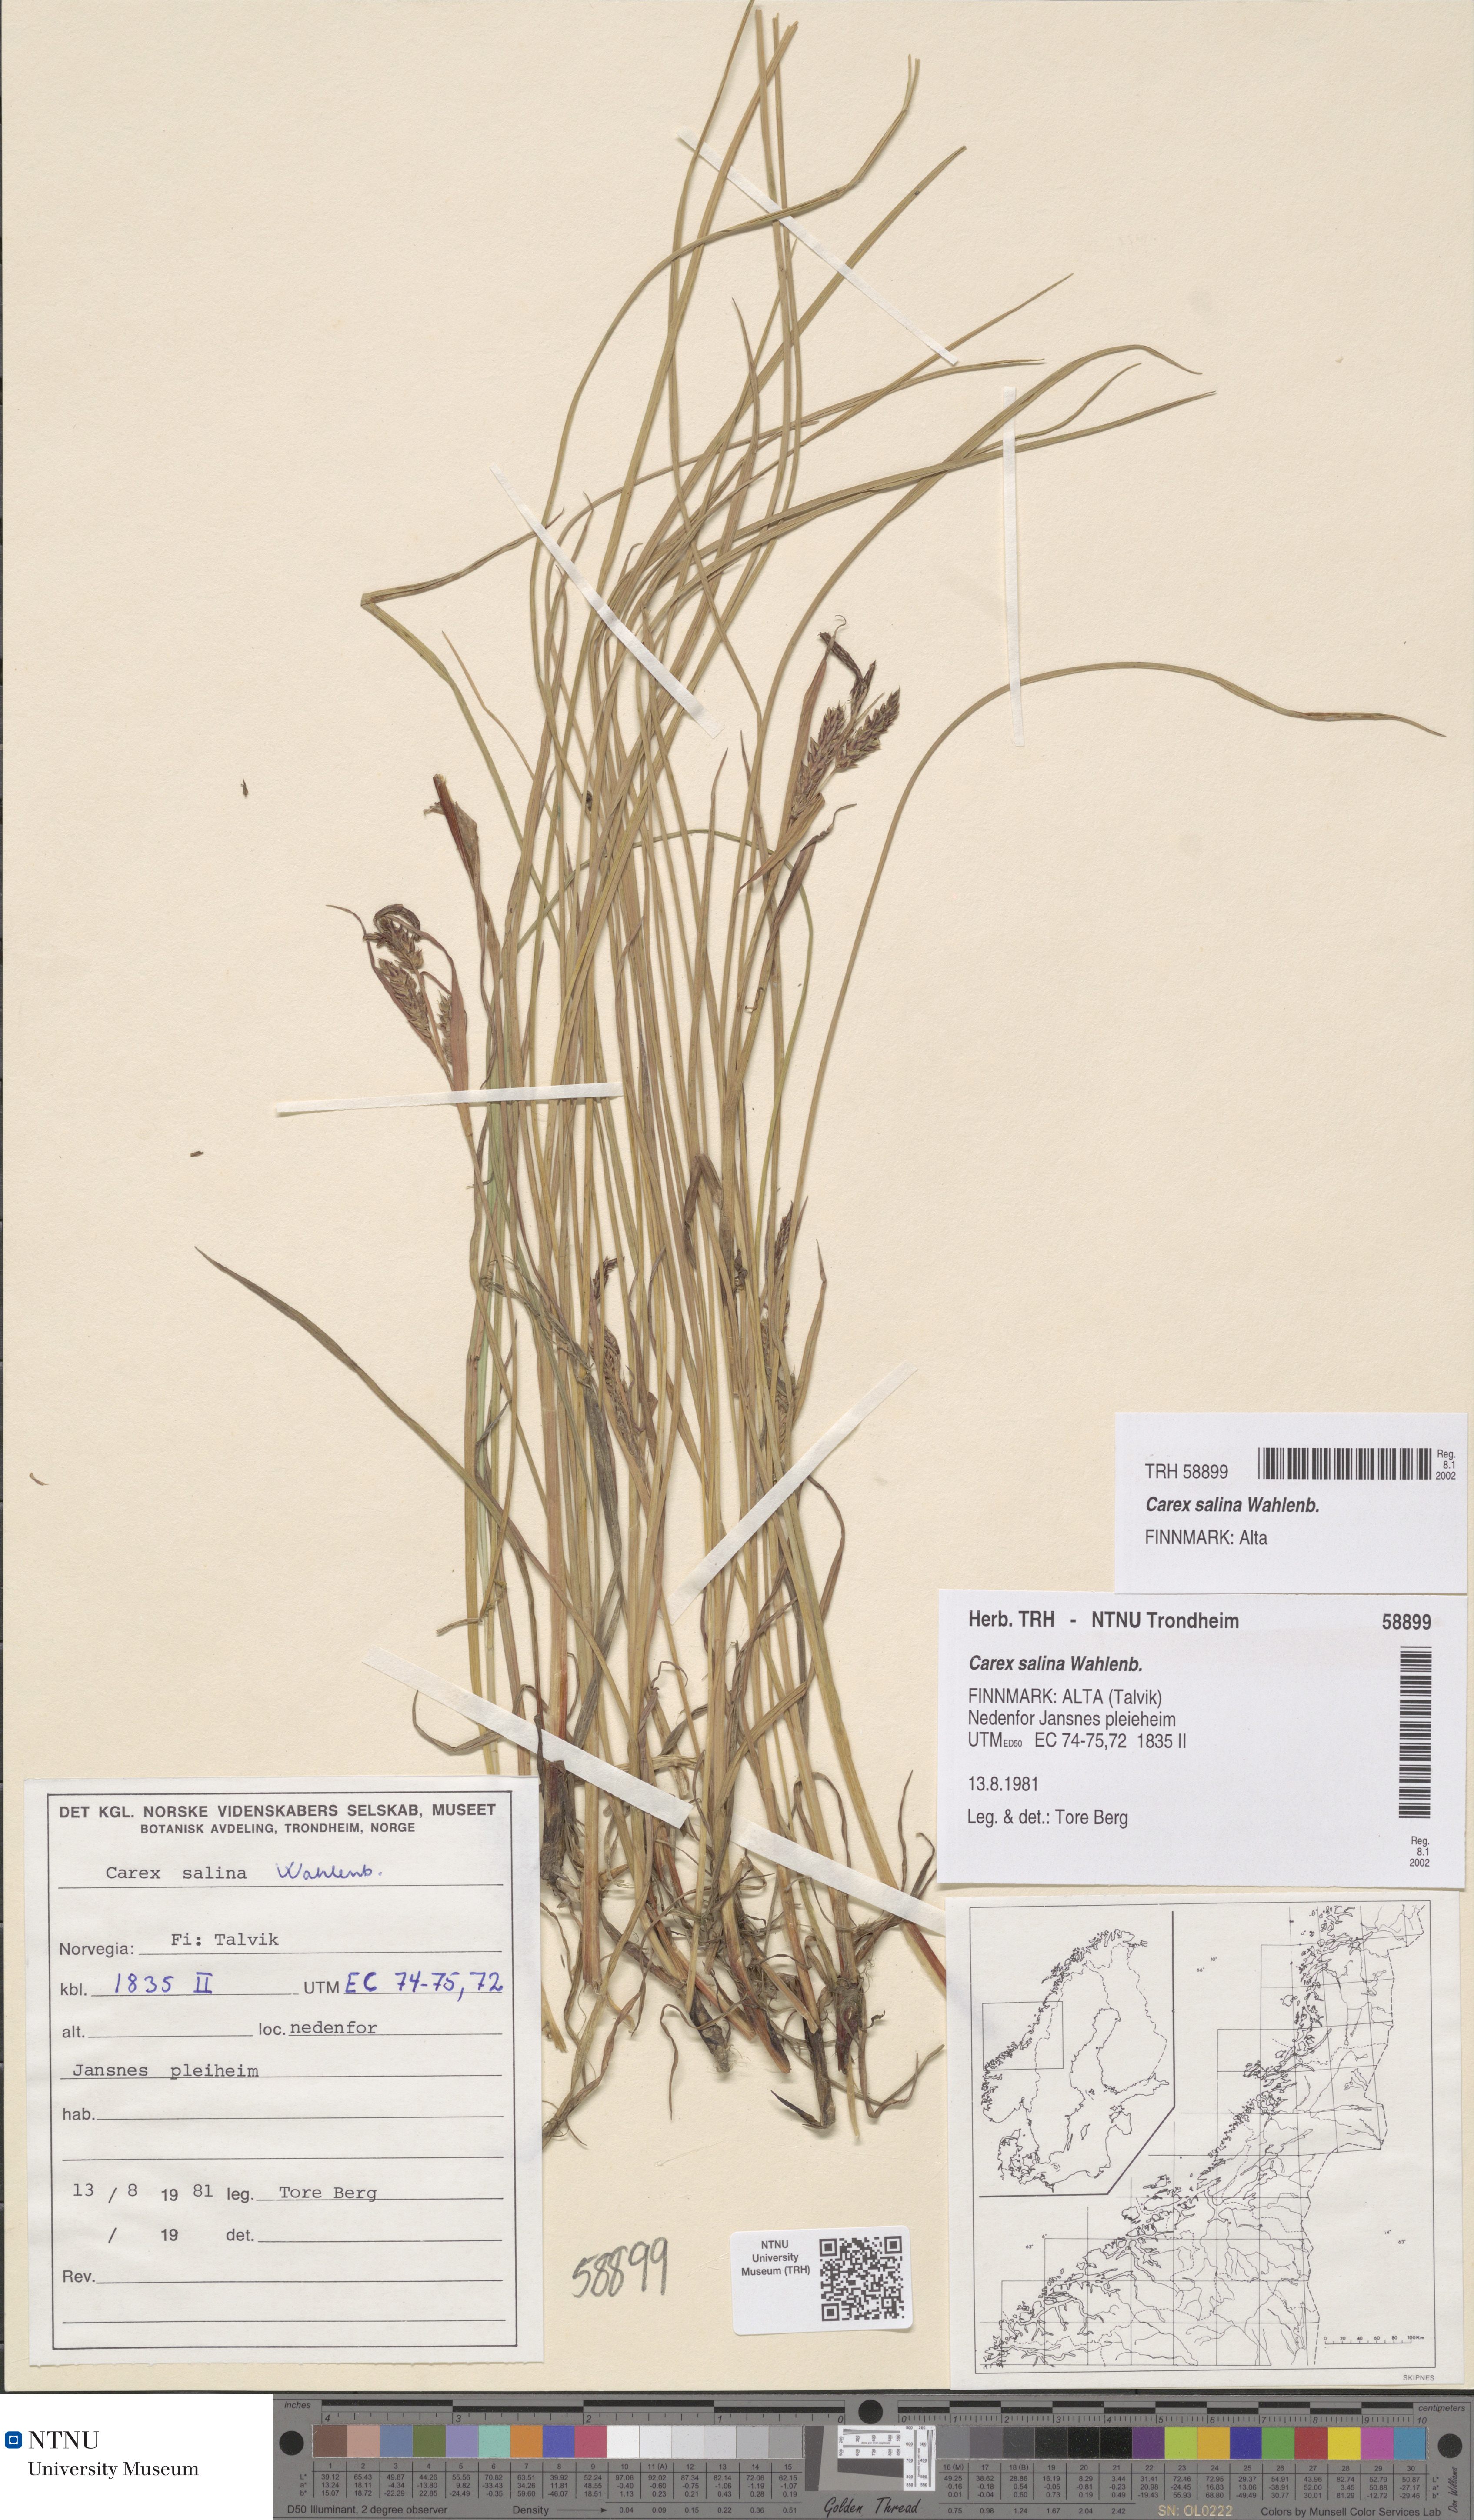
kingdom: Plantae
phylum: Tracheophyta
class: Liliopsida
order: Poales
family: Cyperaceae
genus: Carex
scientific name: Carex salina
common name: Saltmarsh sedge
